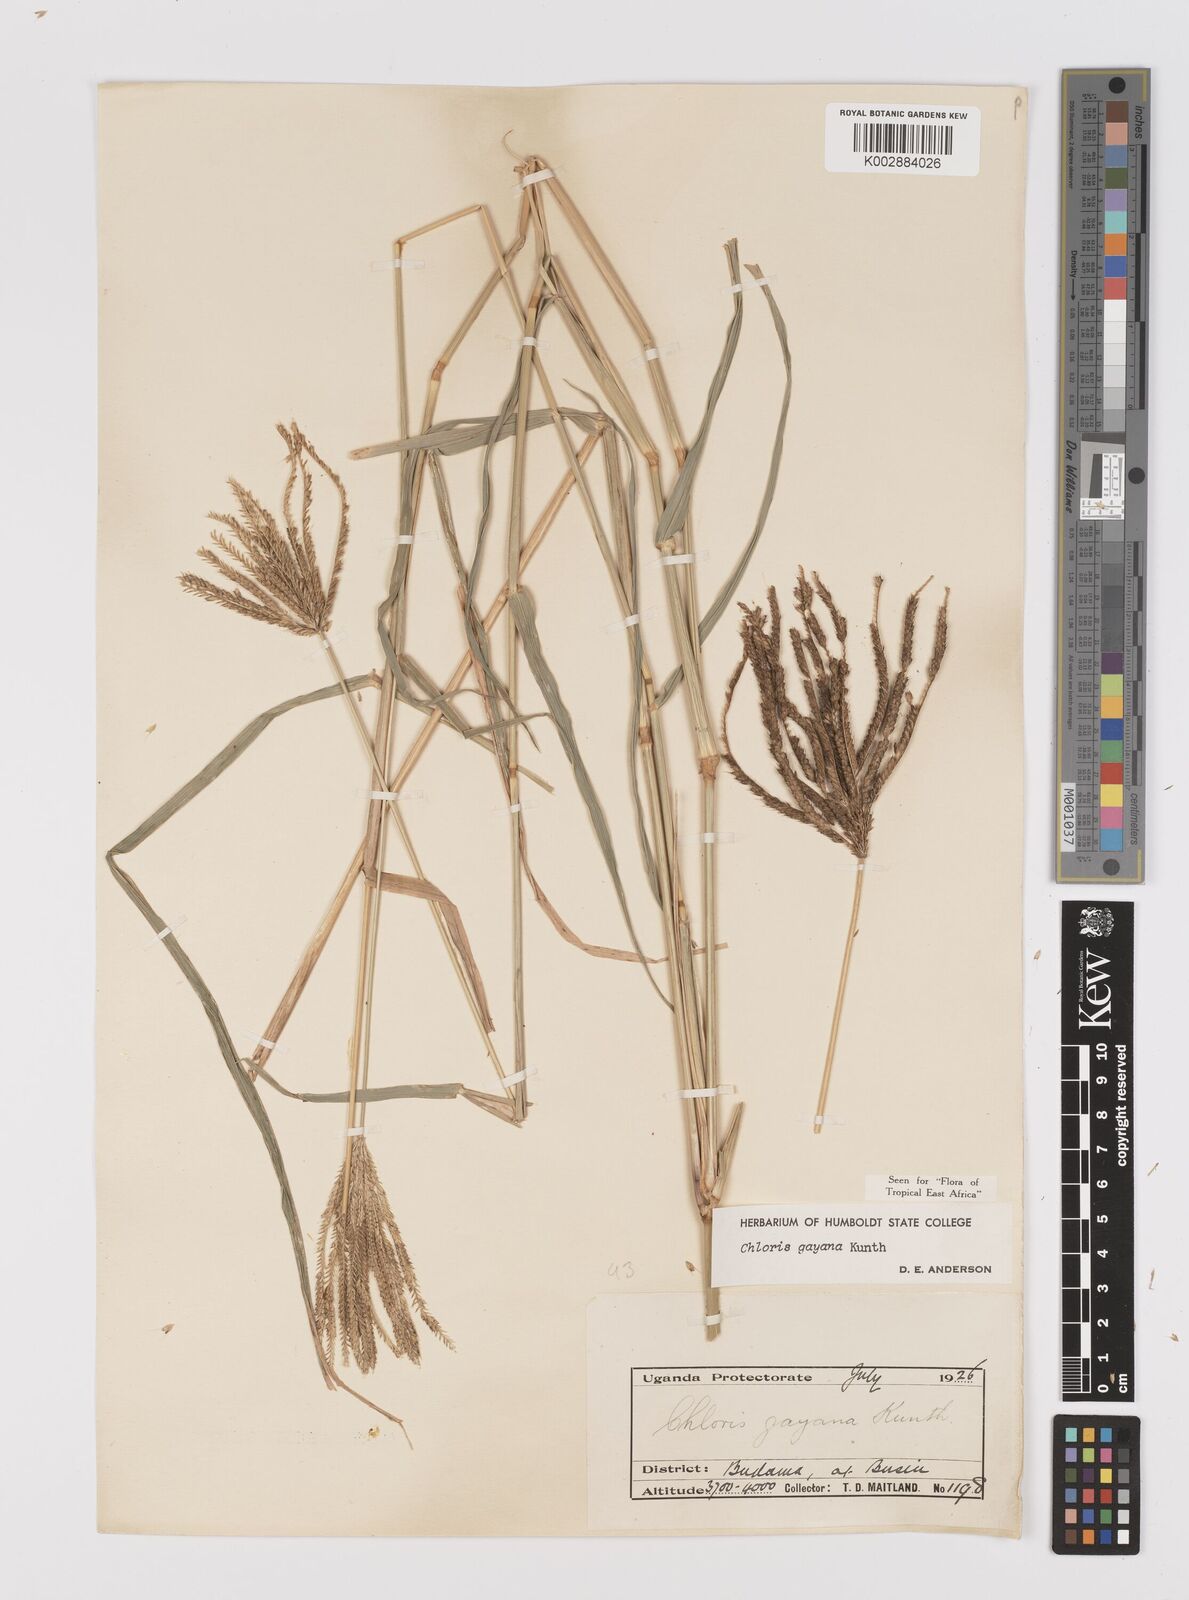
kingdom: Plantae
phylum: Tracheophyta
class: Liliopsida
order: Poales
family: Poaceae
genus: Chloris
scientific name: Chloris gayana
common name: Rhodes grass
